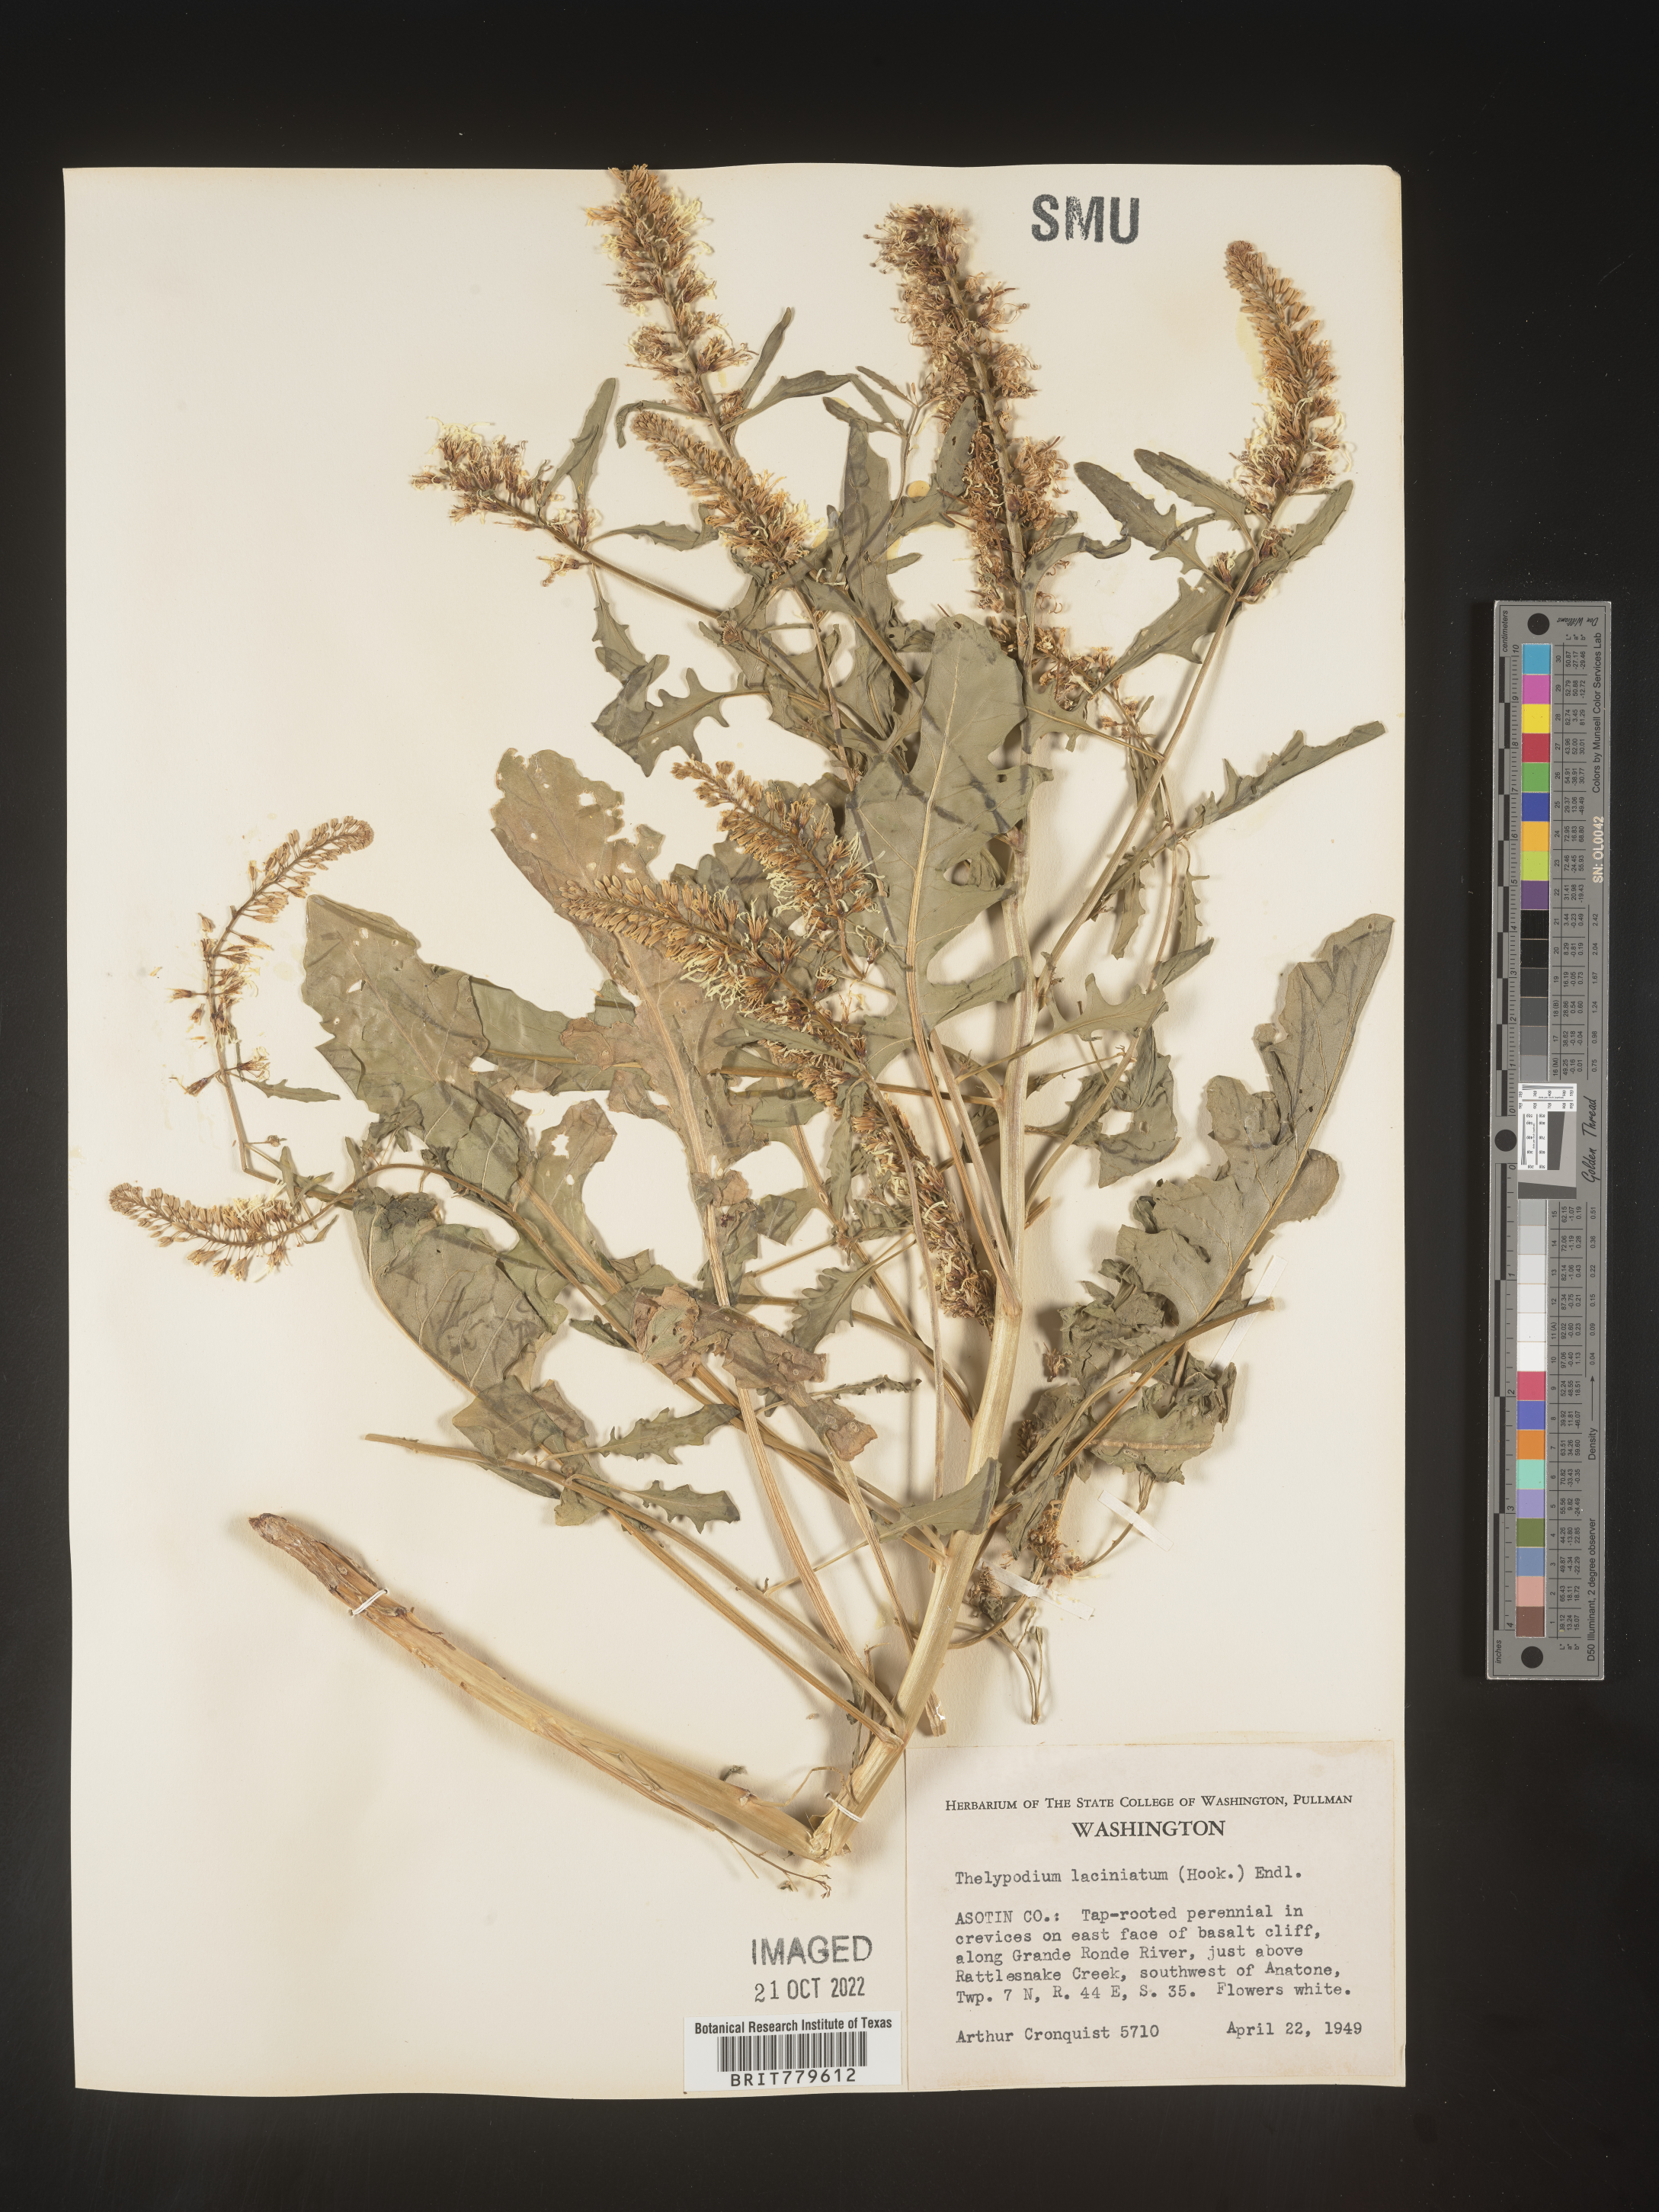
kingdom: Plantae
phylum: Tracheophyta
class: Magnoliopsida
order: Brassicales
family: Brassicaceae
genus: Thelypodium
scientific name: Thelypodium
